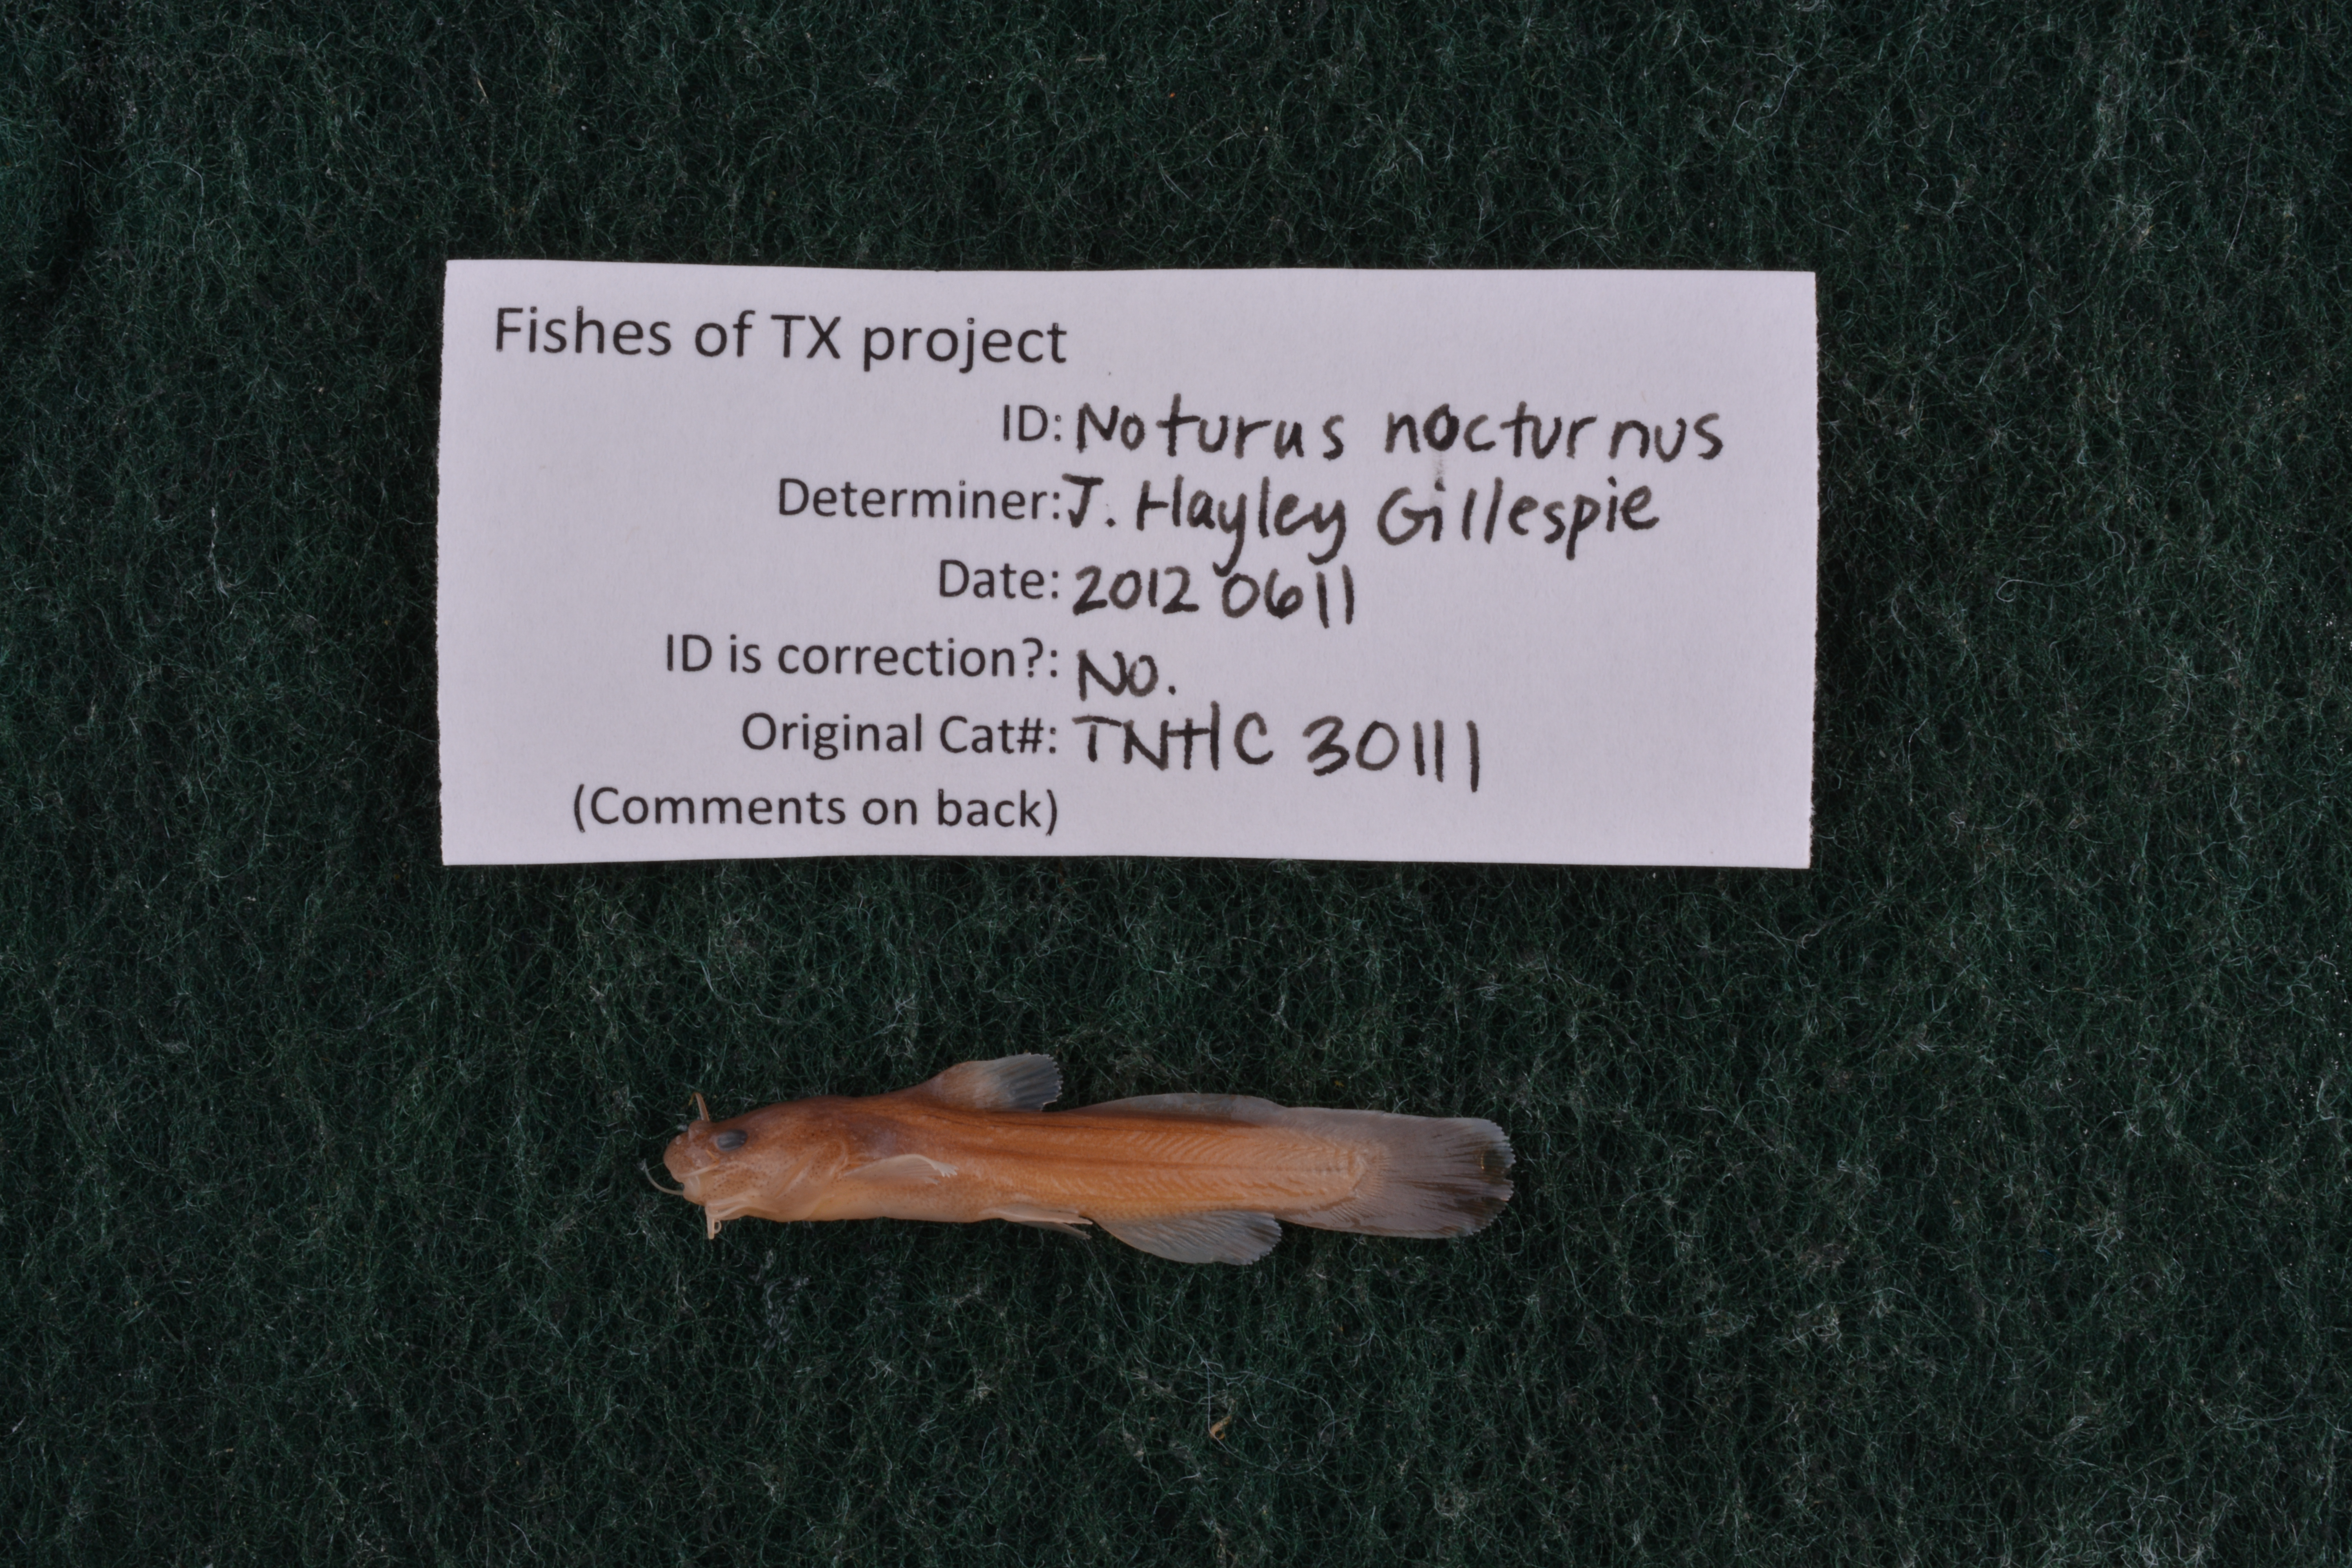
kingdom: Animalia
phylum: Chordata
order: Siluriformes
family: Ictaluridae
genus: Noturus
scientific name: Noturus nocturnus
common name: Freckled madtom
